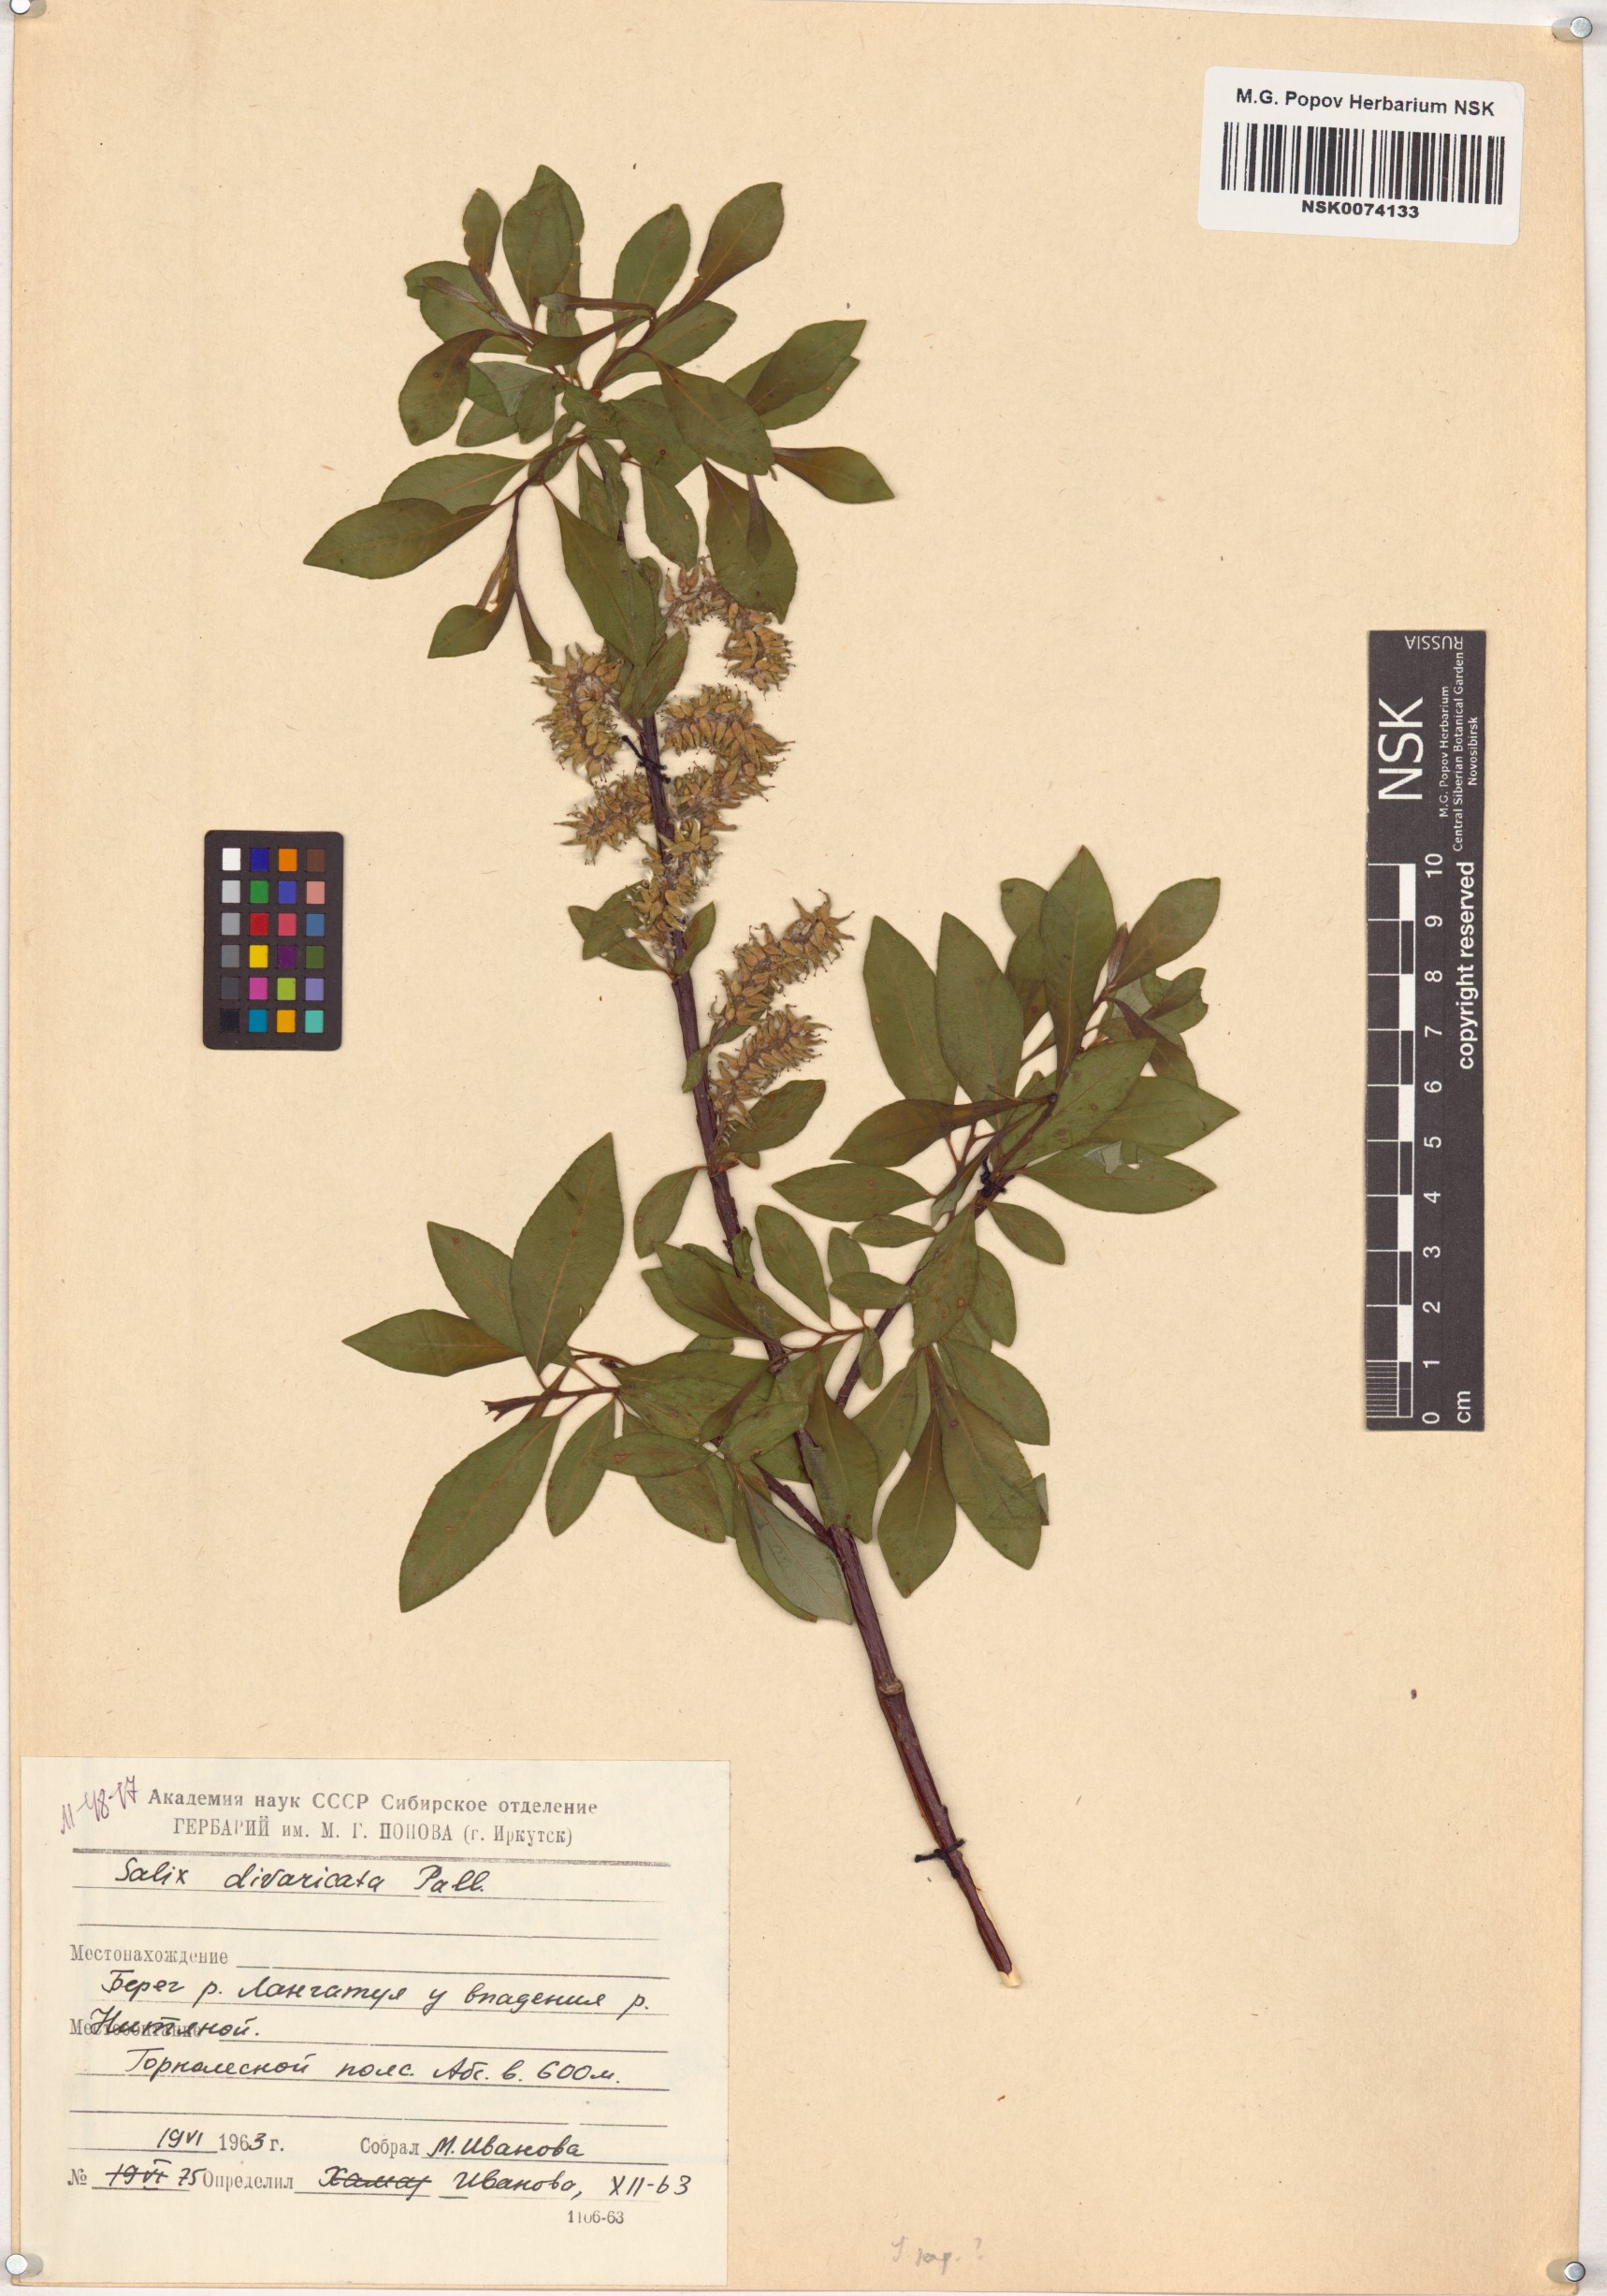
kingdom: Plantae
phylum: Tracheophyta
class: Magnoliopsida
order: Malpighiales
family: Salicaceae
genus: Salix
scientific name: Salix divaricata
